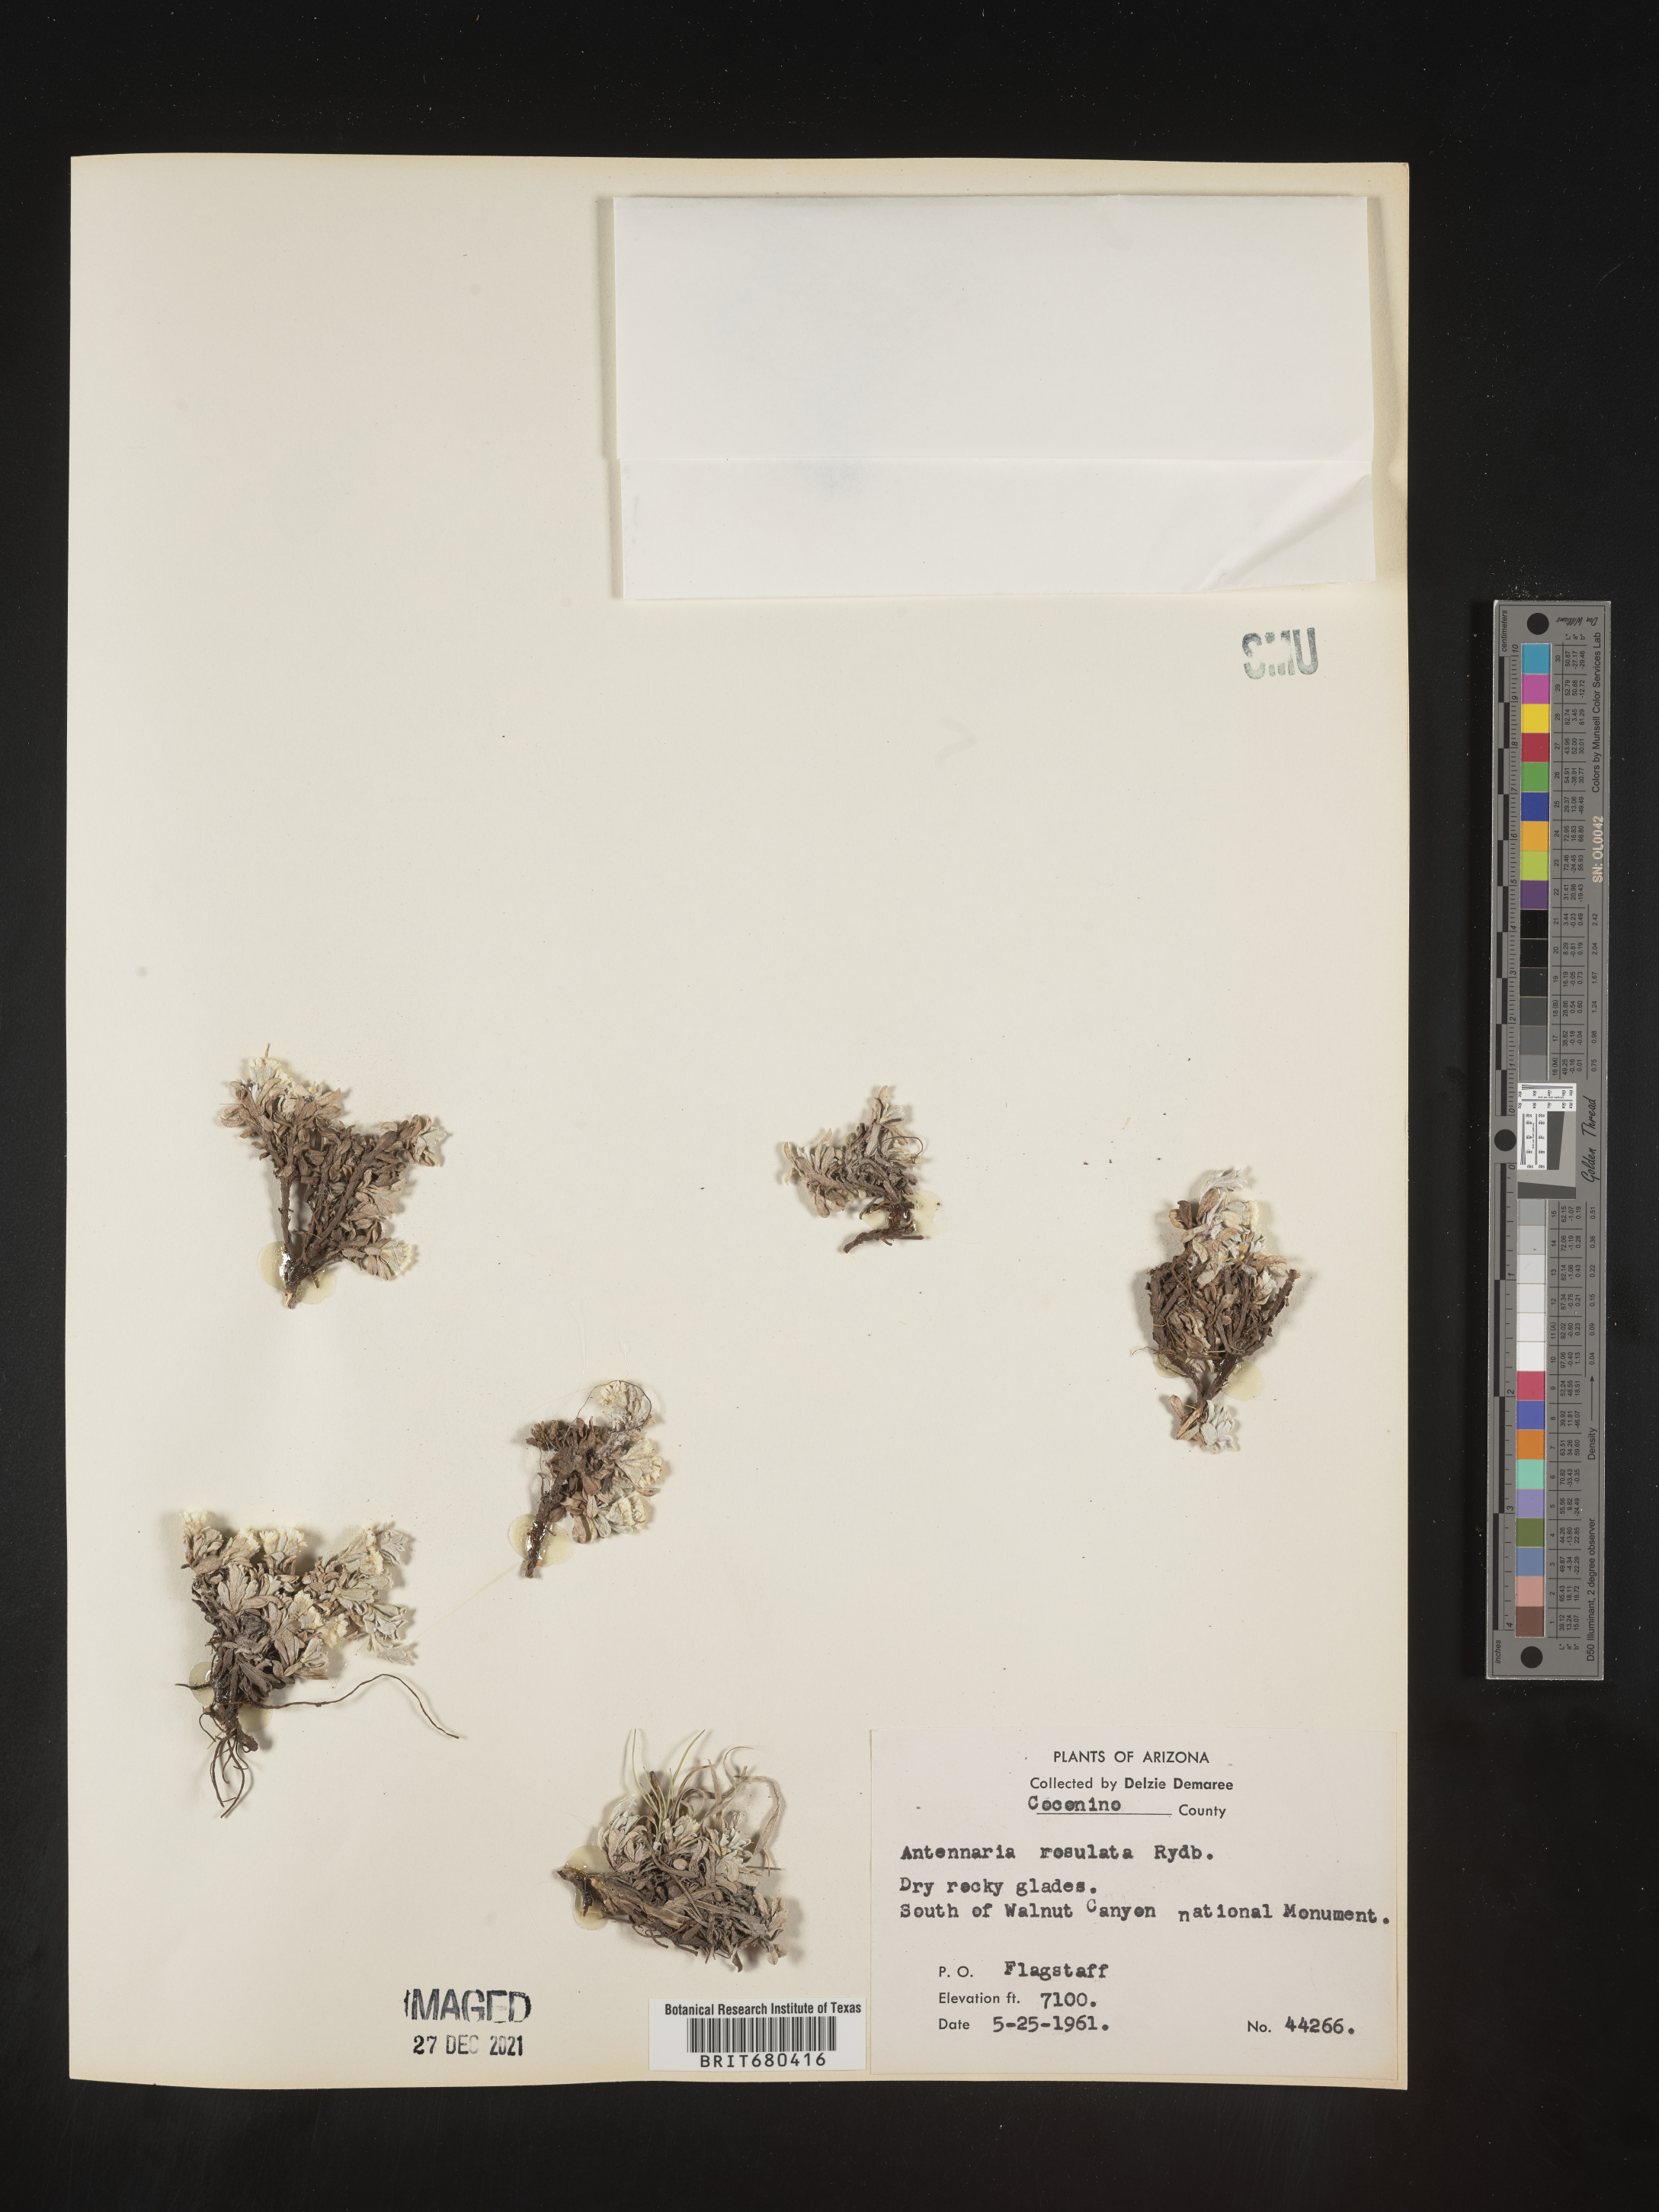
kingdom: Plantae
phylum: Tracheophyta
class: Magnoliopsida
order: Asterales
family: Asteraceae
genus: Antennaria
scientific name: Antennaria rosulata
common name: Woolly pussytoes
